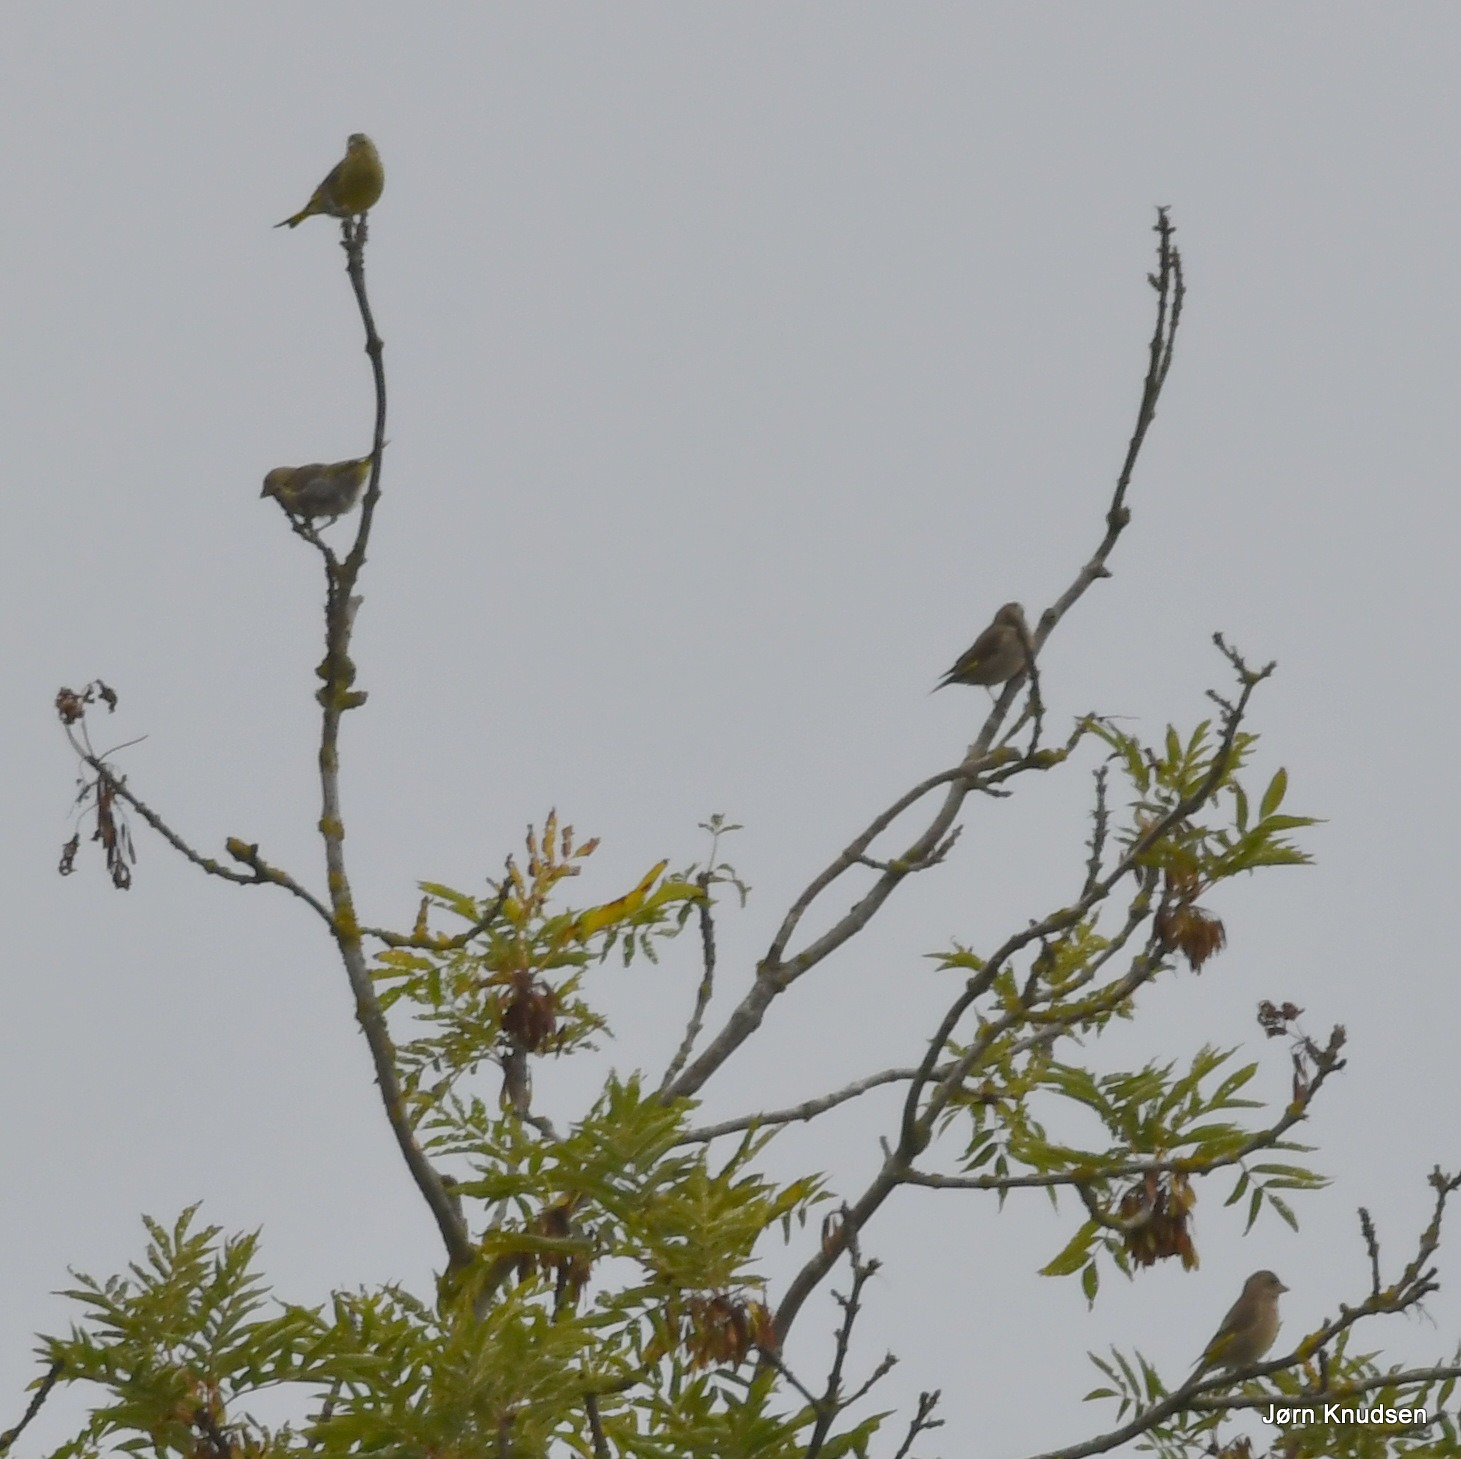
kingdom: Plantae
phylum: Tracheophyta
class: Liliopsida
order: Poales
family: Poaceae
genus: Chloris
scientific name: Chloris chloris
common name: Grønirisk
